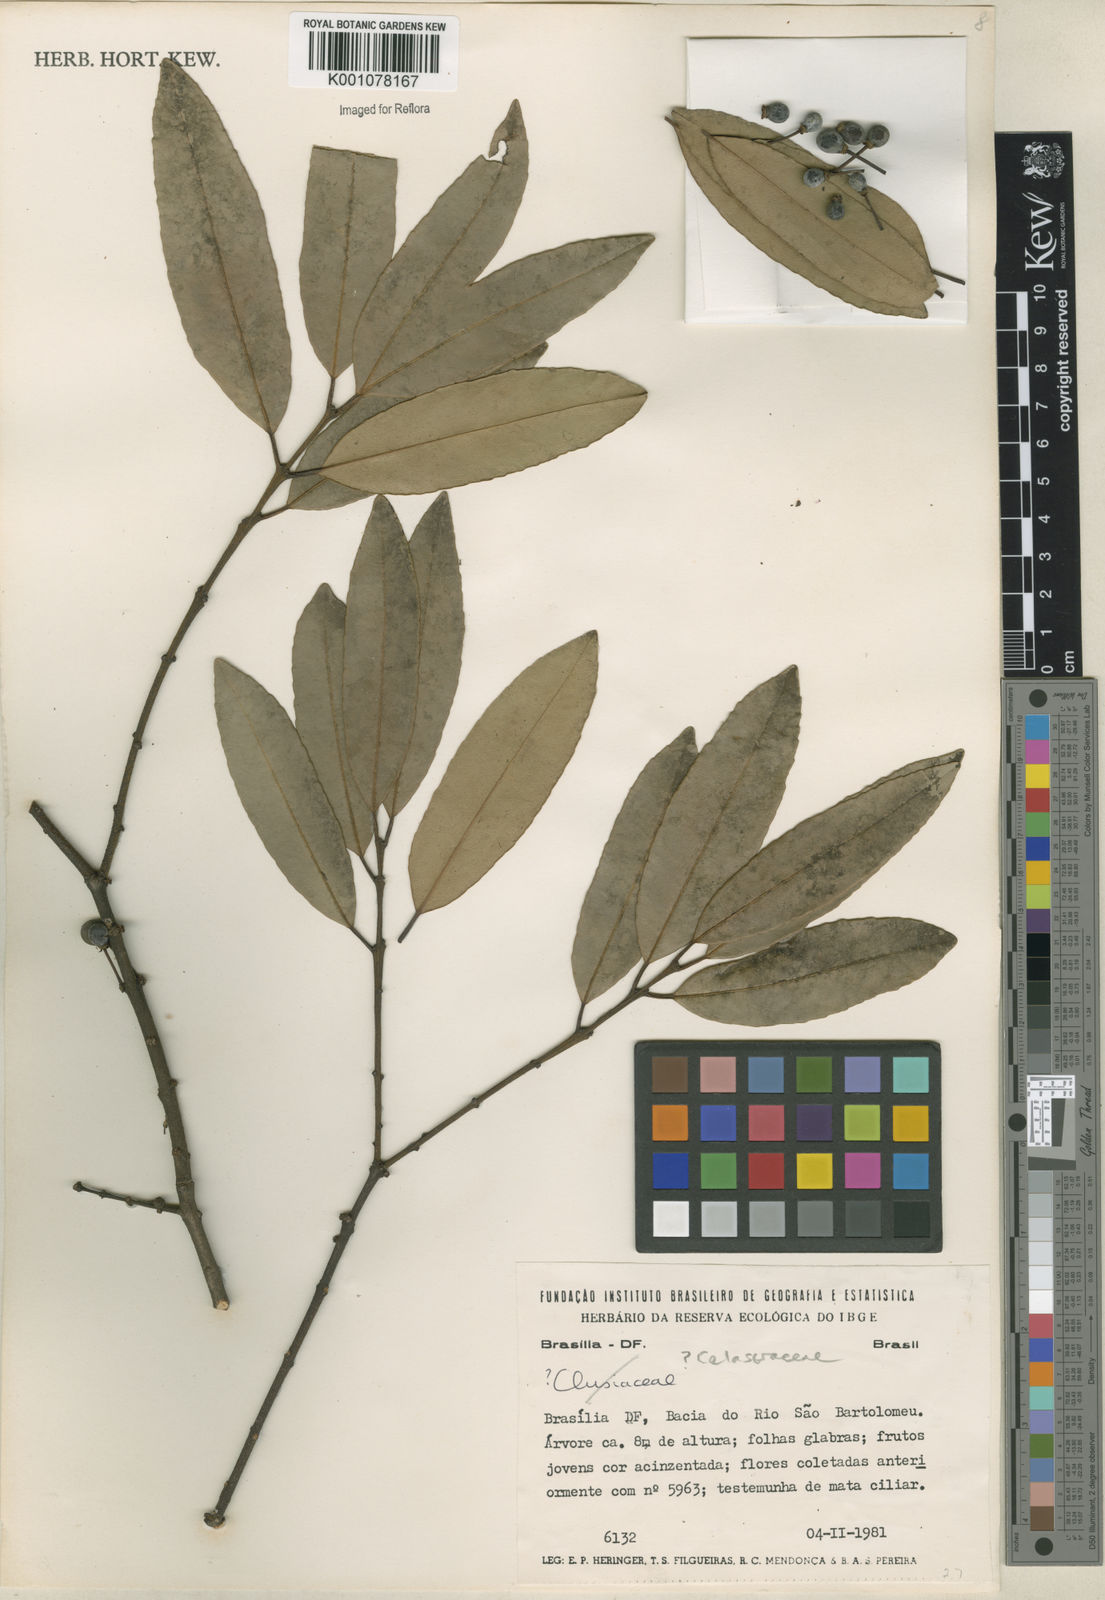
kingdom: Plantae
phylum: Tracheophyta
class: Magnoliopsida
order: Celastrales
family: Celastraceae
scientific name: Celastraceae
